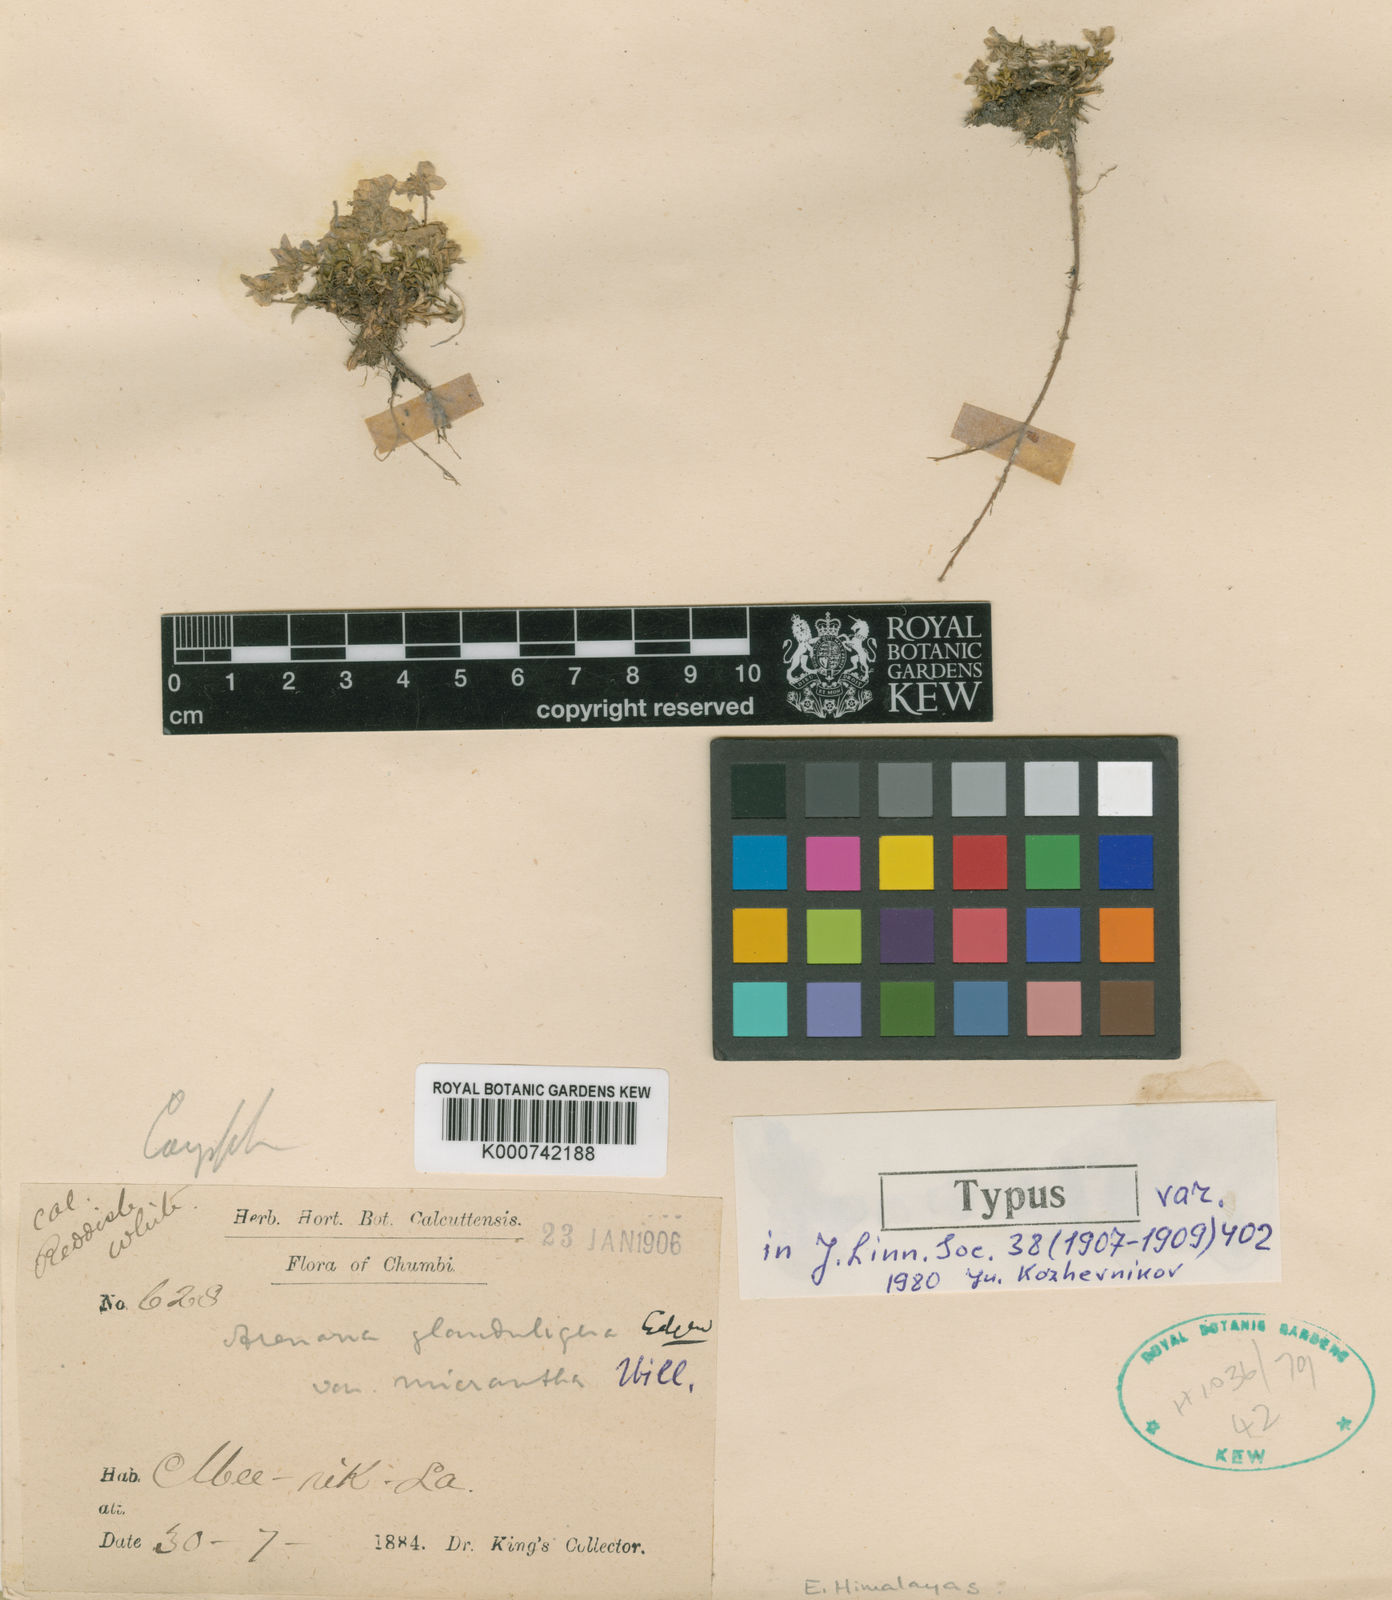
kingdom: Plantae
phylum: Tracheophyta
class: Magnoliopsida
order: Caryophyllales
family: Caryophyllaceae
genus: Shivparvatia
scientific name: Shivparvatia glanduligera
